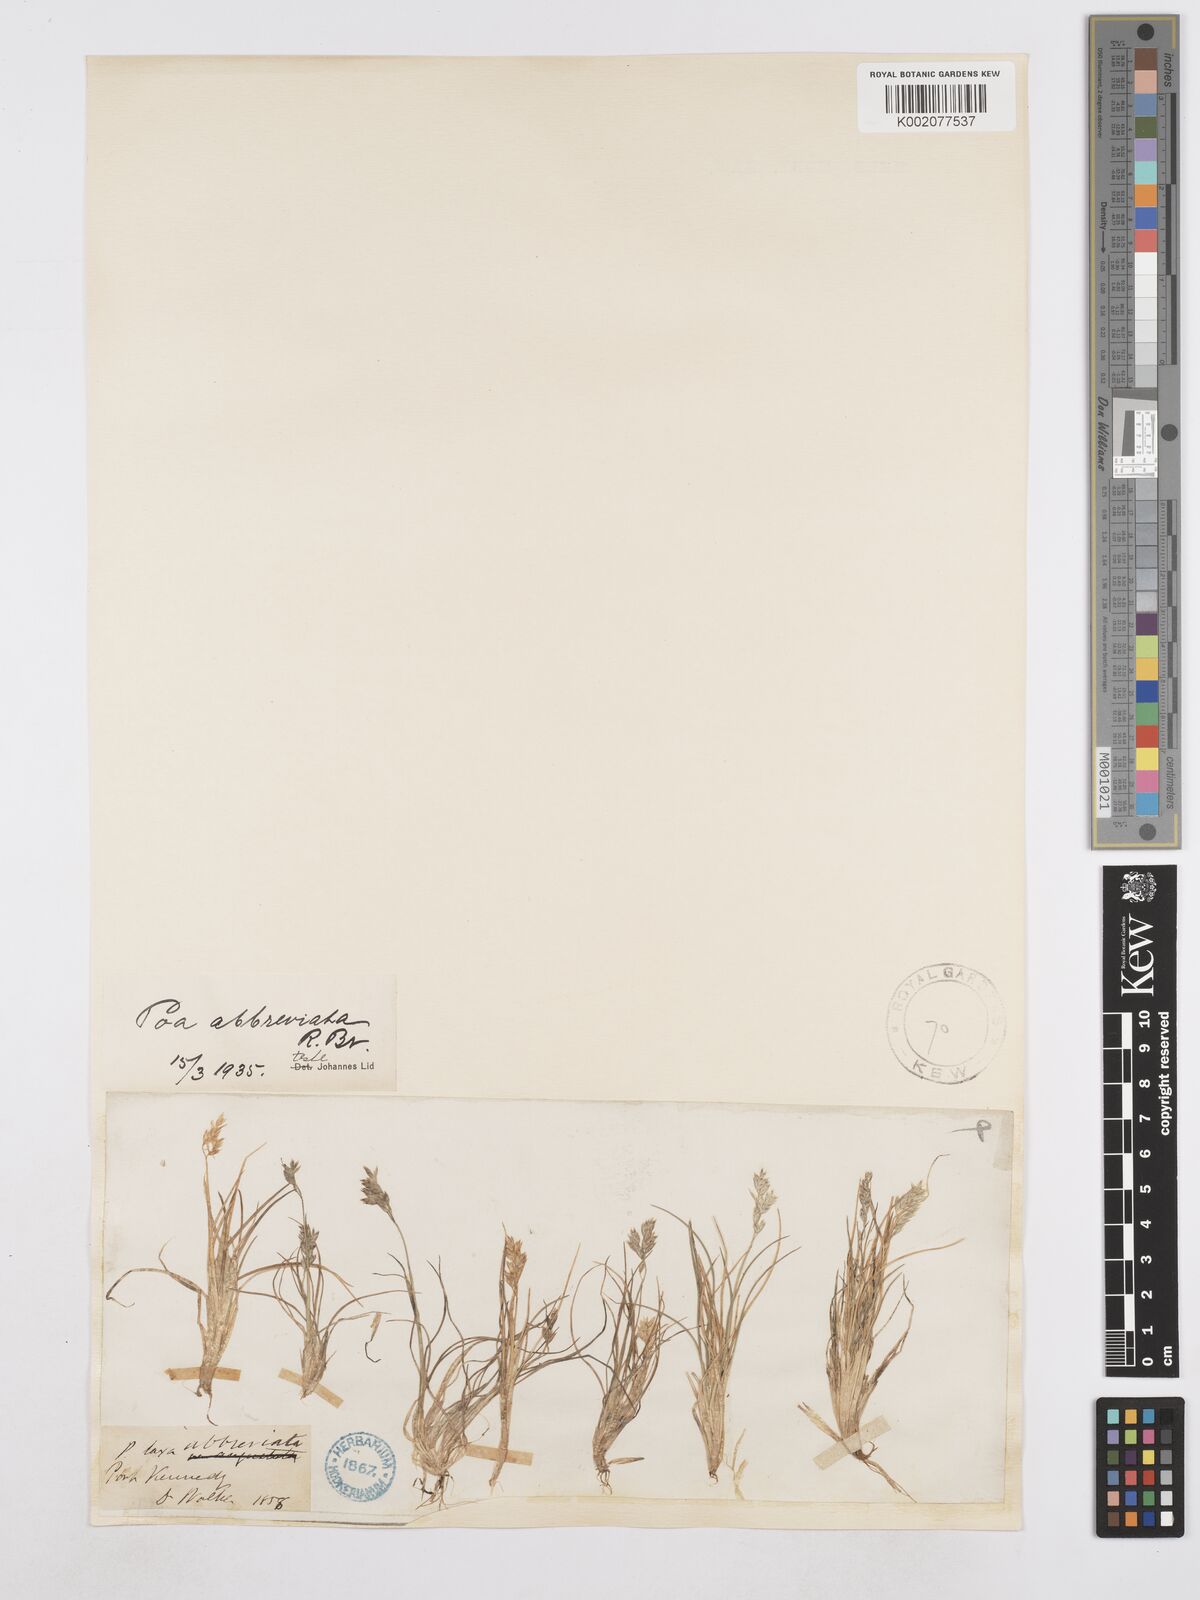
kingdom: Plantae
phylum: Tracheophyta
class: Liliopsida
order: Poales
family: Poaceae
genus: Poa
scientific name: Poa abbreviata
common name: Abbreviated bluegrass
